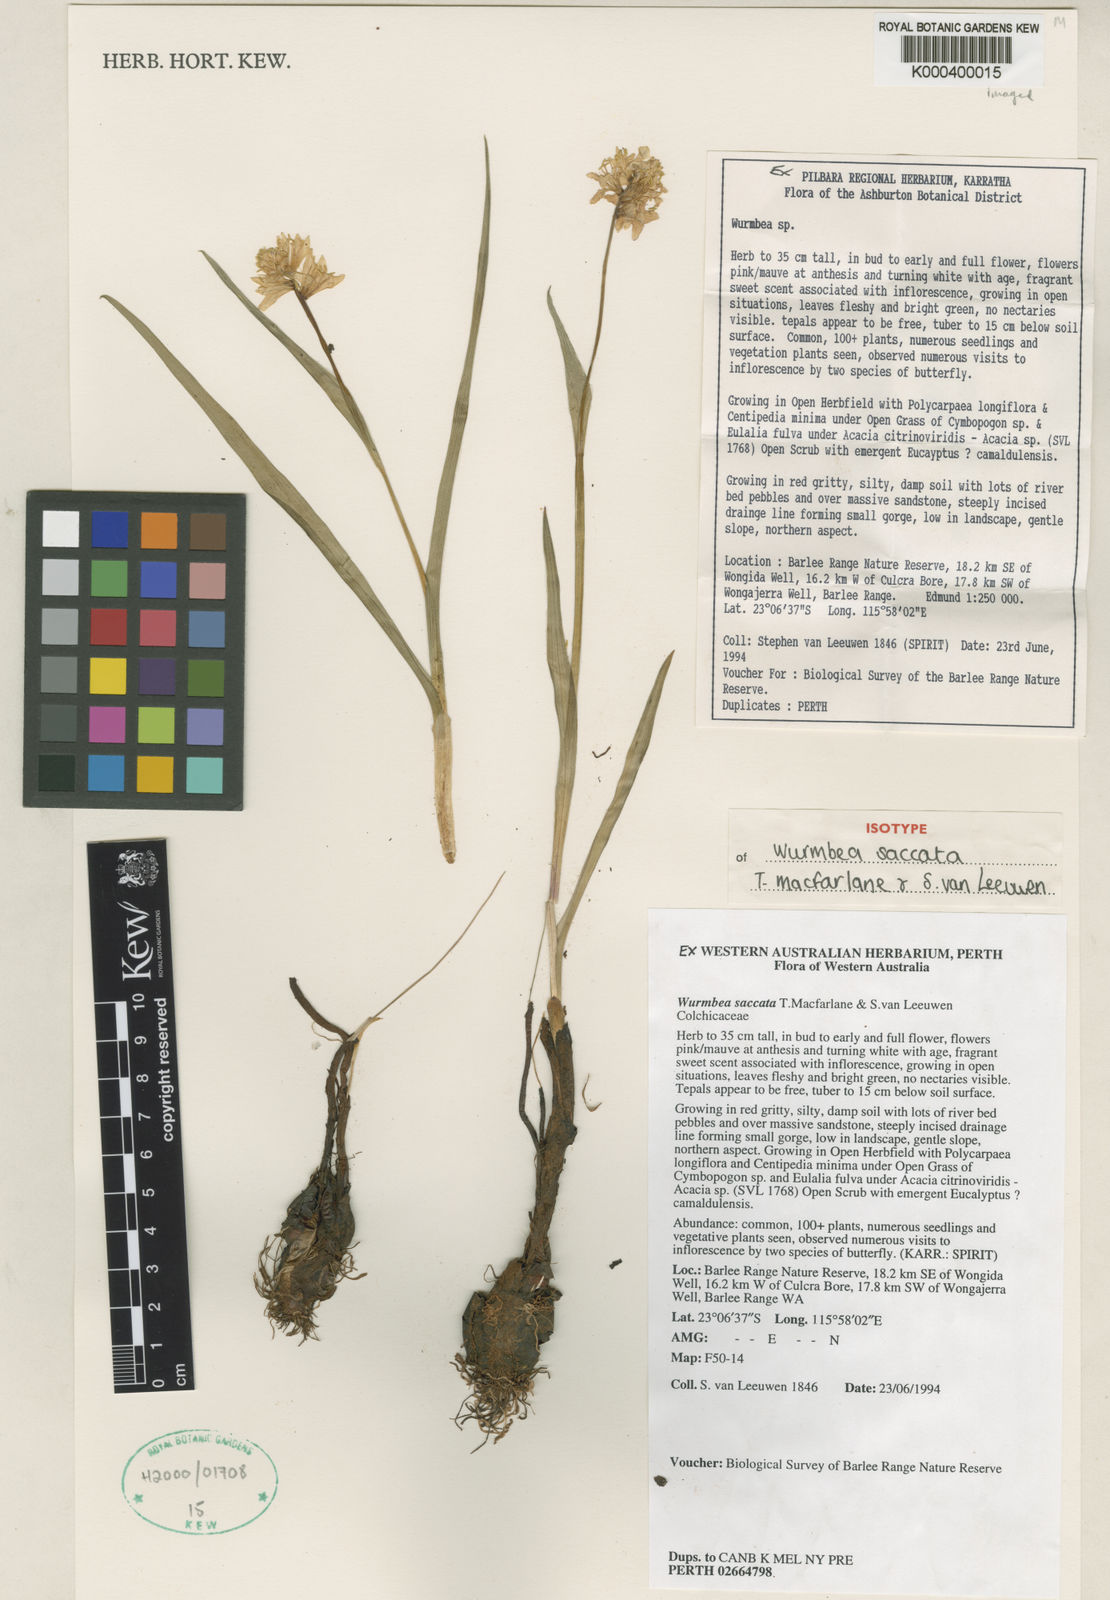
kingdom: Plantae
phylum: Tracheophyta
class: Liliopsida
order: Liliales
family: Colchicaceae
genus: Wurmbea
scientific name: Wurmbea saccata
